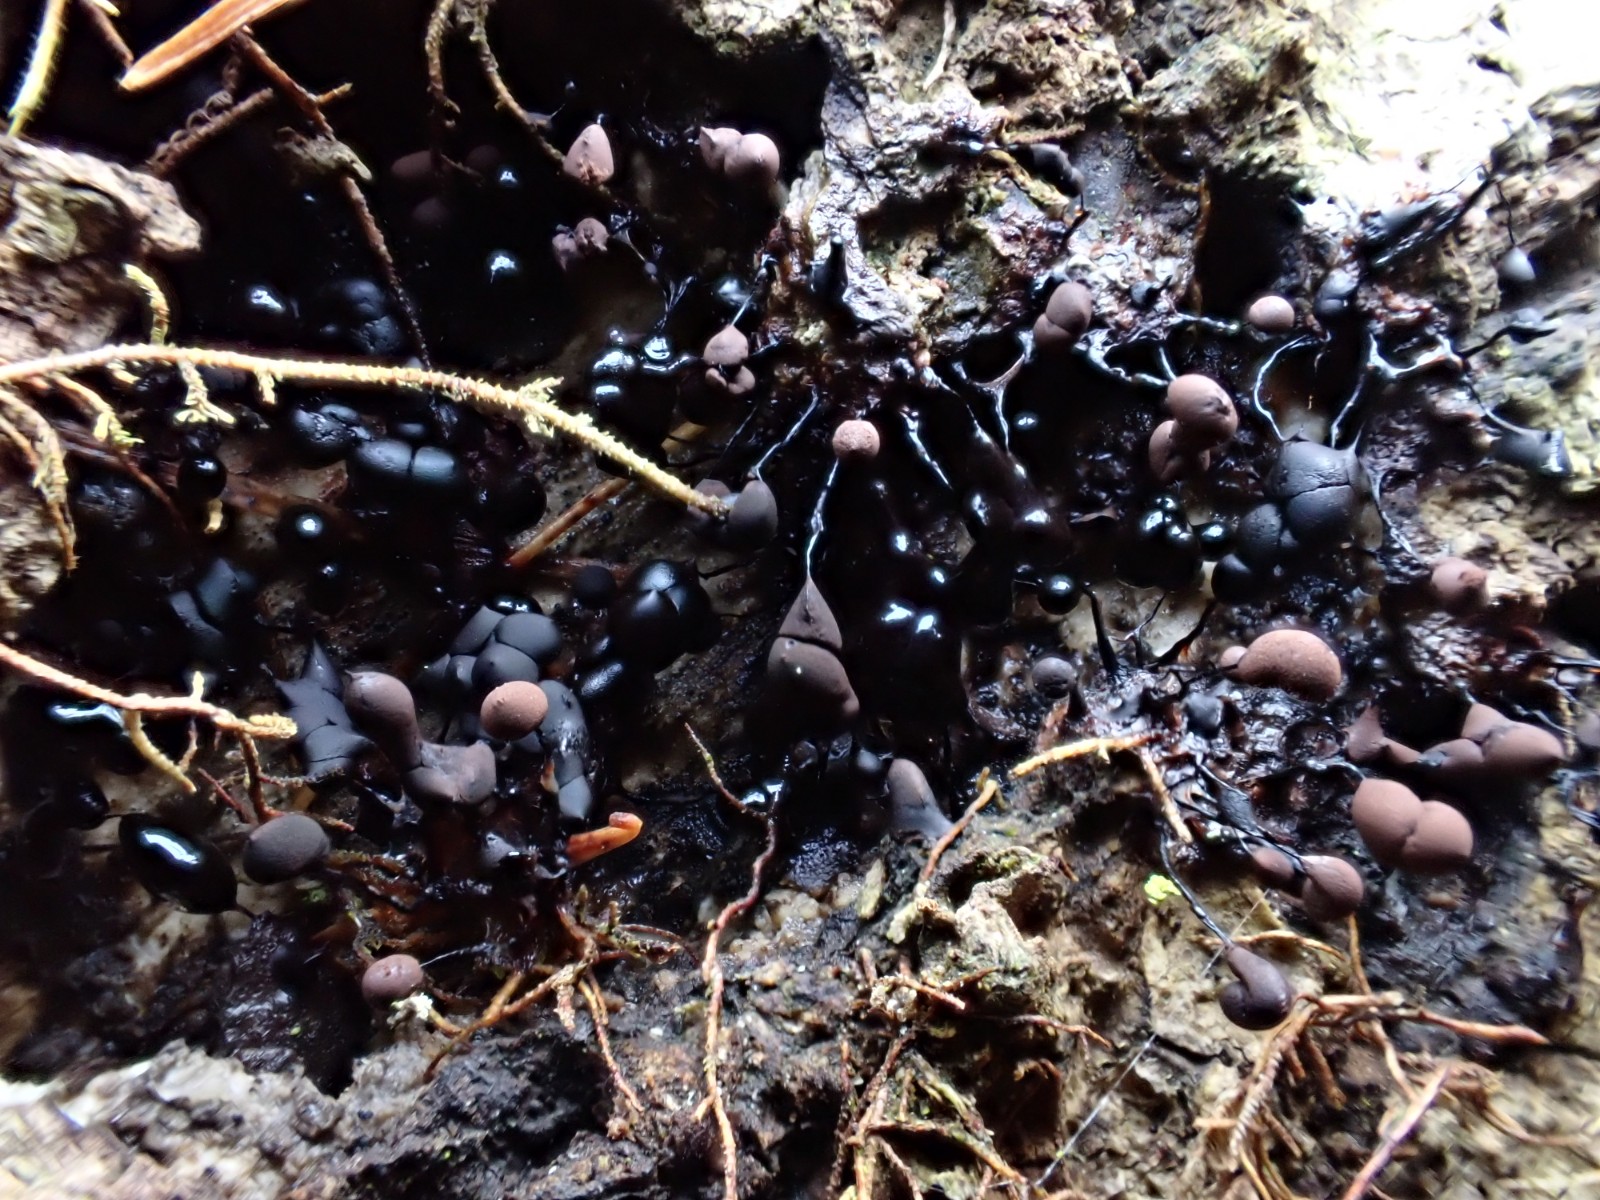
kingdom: Protozoa
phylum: Mycetozoa
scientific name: Mycetozoa
